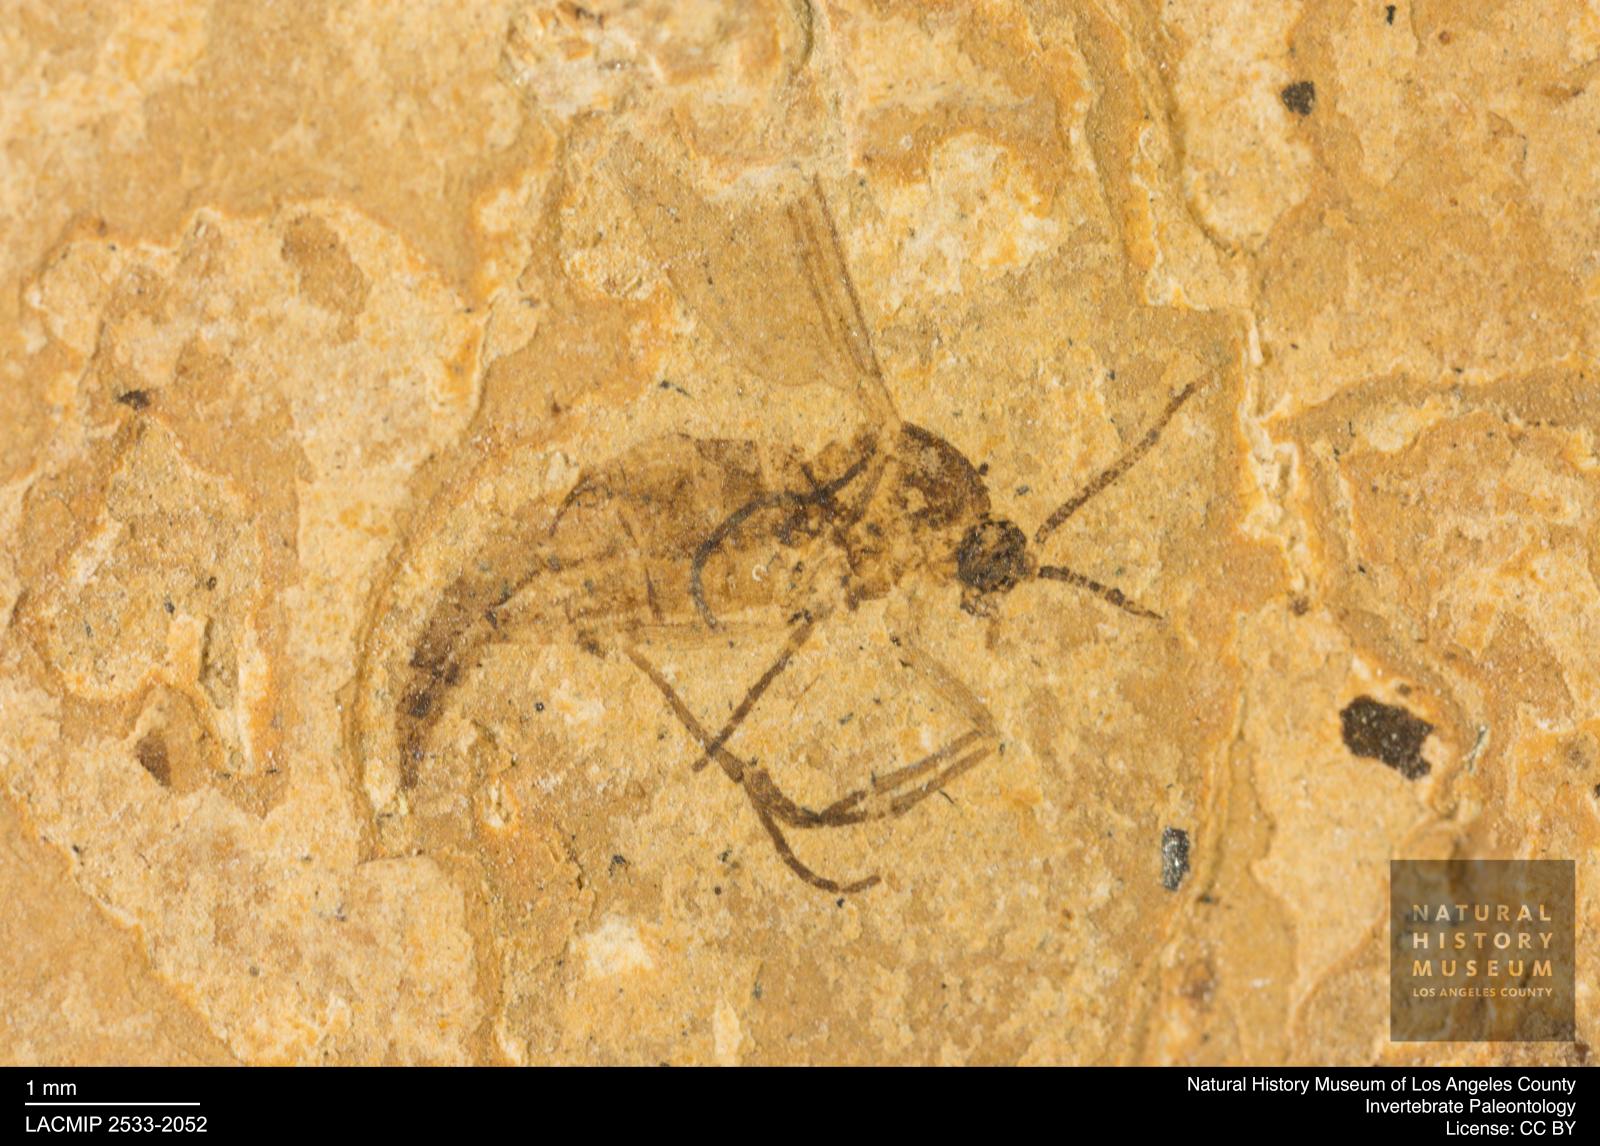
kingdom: Animalia
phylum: Arthropoda
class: Insecta
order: Diptera
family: Sciaridae
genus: Sciara
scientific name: Sciara atavina
